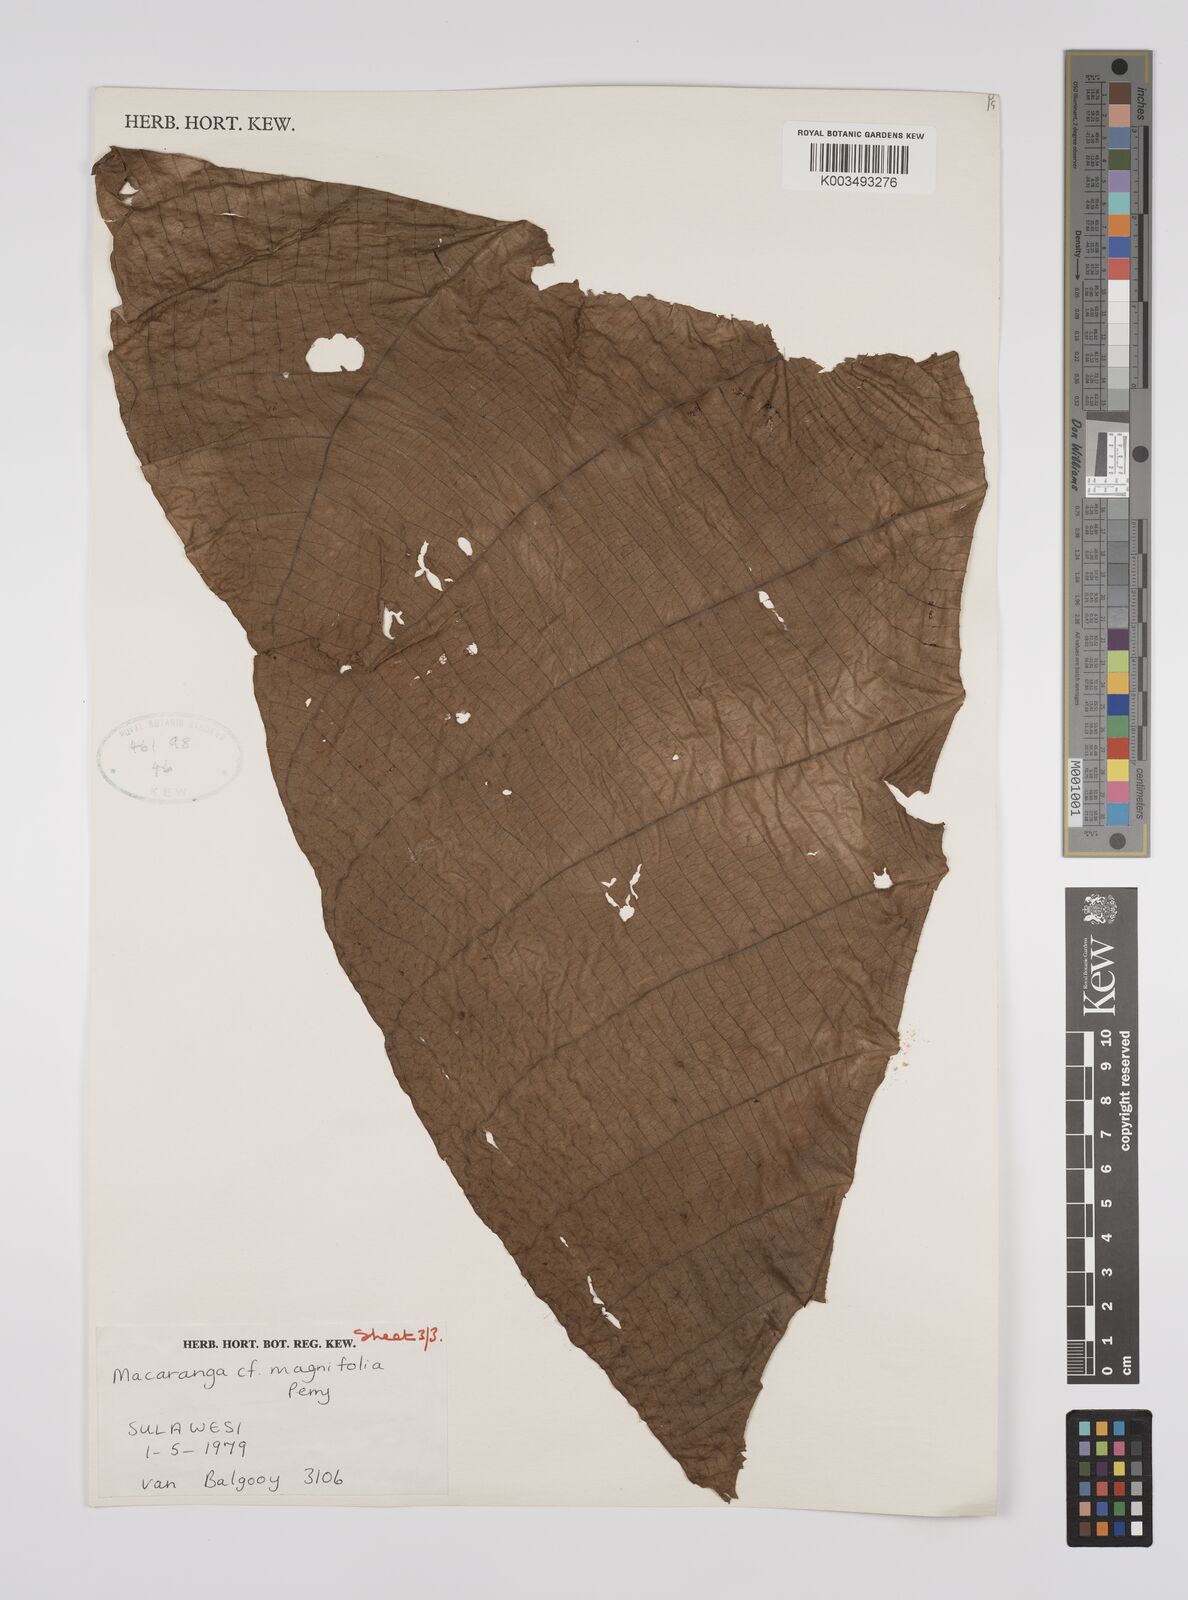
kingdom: Plantae
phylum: Tracheophyta
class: Magnoliopsida
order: Malpighiales
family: Euphorbiaceae
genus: Macaranga
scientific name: Macaranga mappa
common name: Pengua
